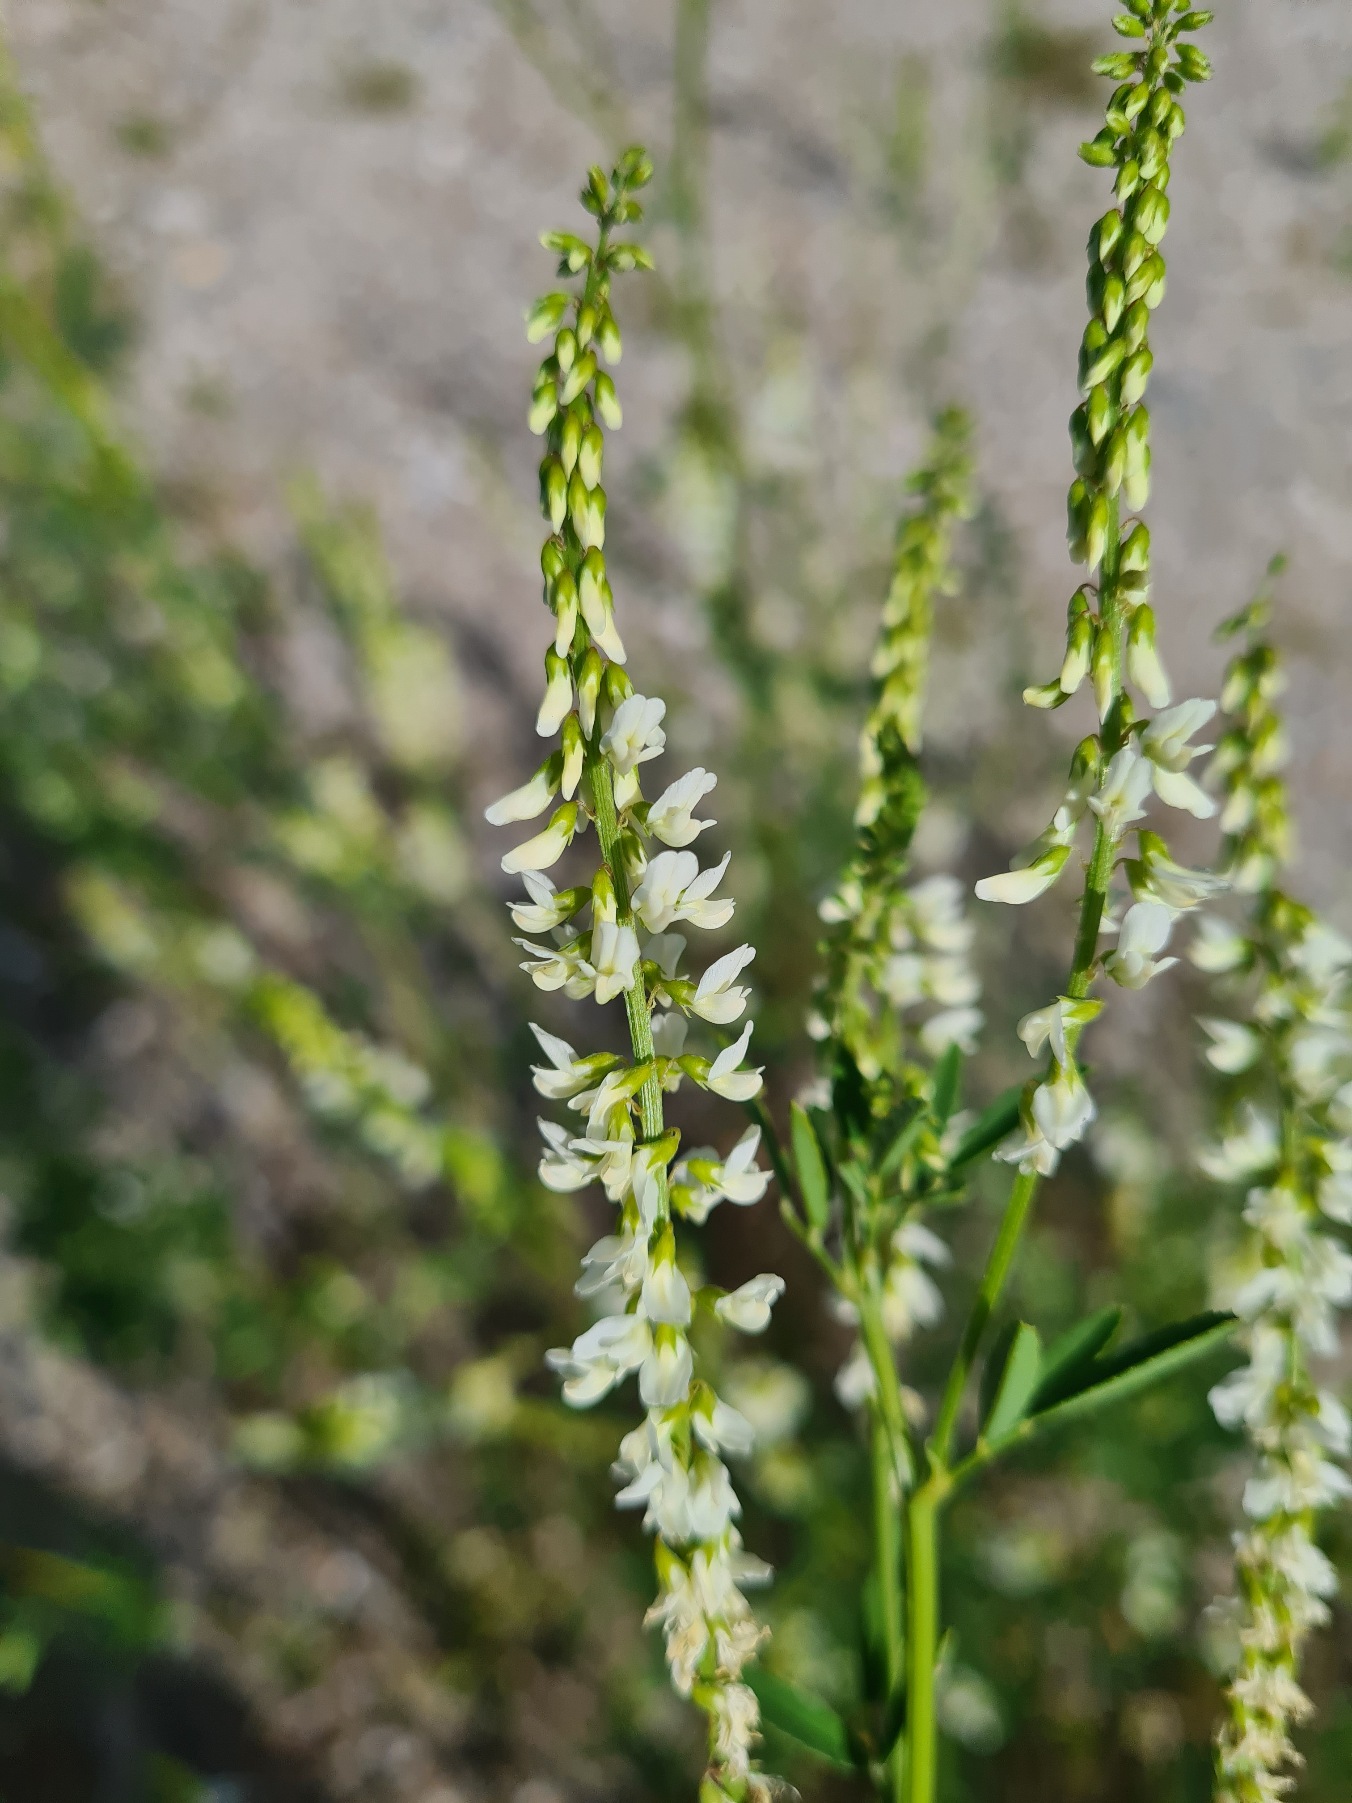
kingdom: Plantae
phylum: Tracheophyta
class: Magnoliopsida
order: Fabales
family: Fabaceae
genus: Melilotus
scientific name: Melilotus albus
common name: Hvid stenkløver
